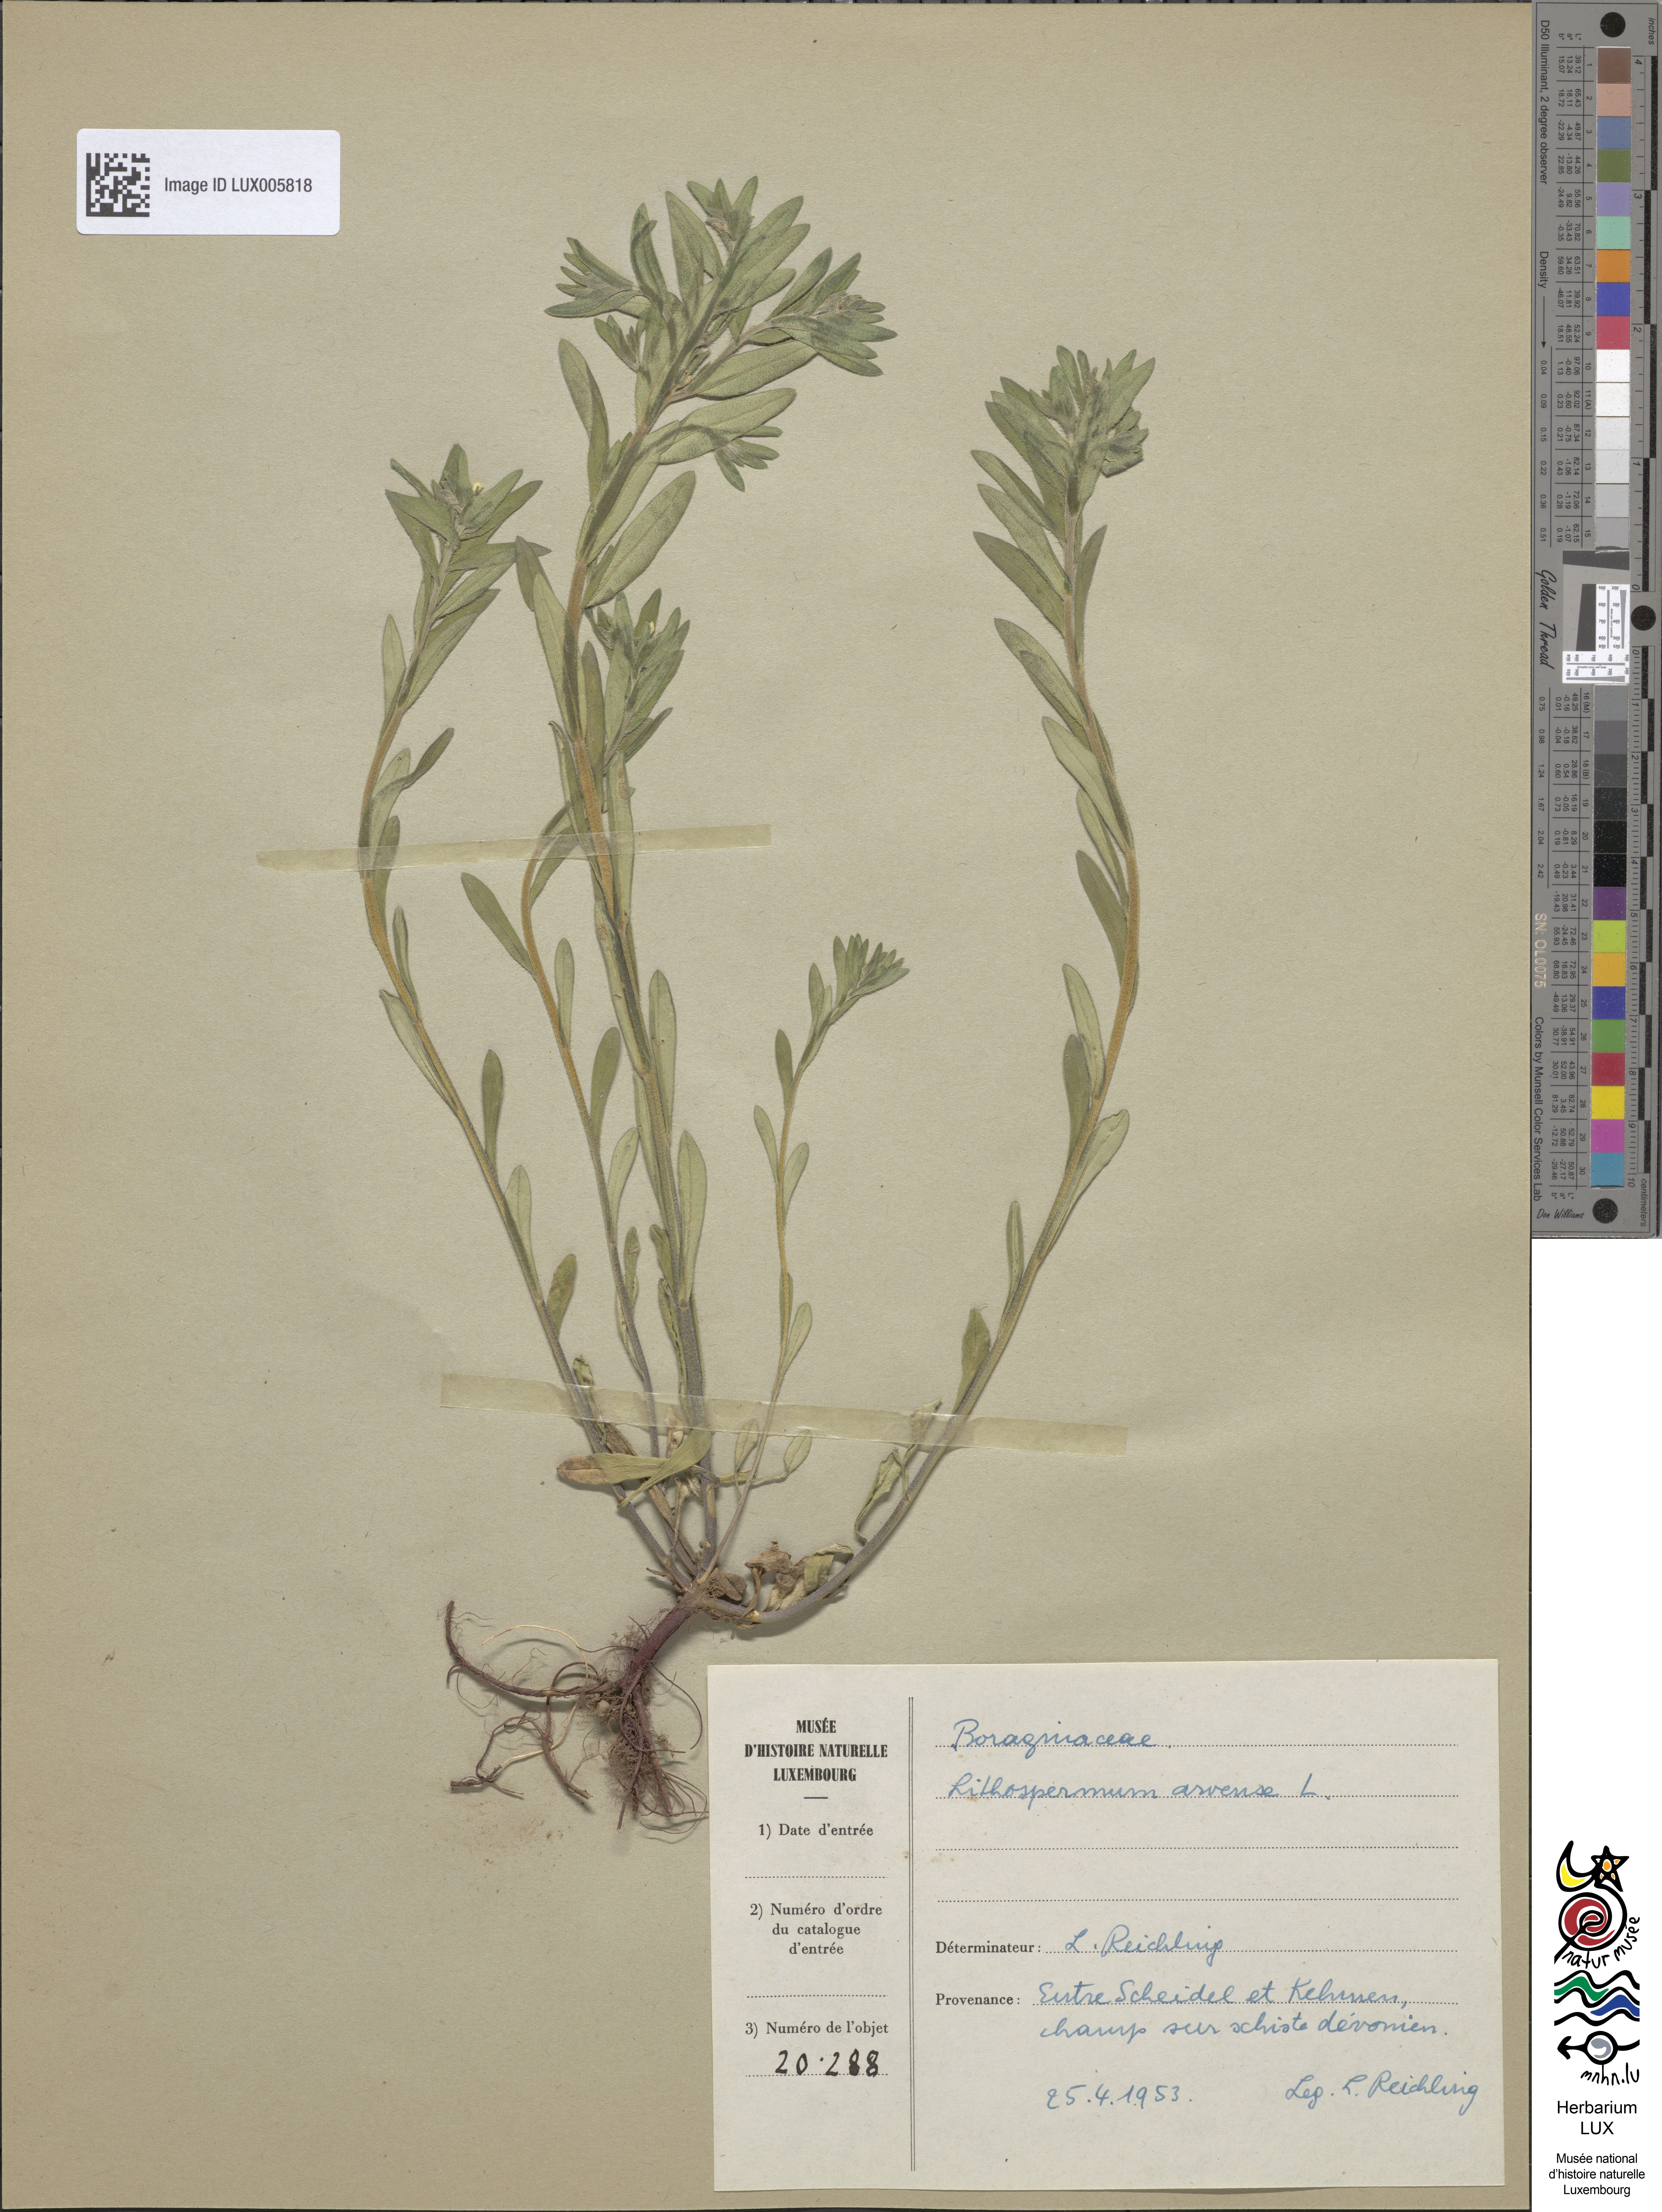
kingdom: Plantae
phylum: Tracheophyta
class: Magnoliopsida
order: Boraginales
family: Boraginaceae
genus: Buglossoides
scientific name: Buglossoides arvensis
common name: Corn gromwell
